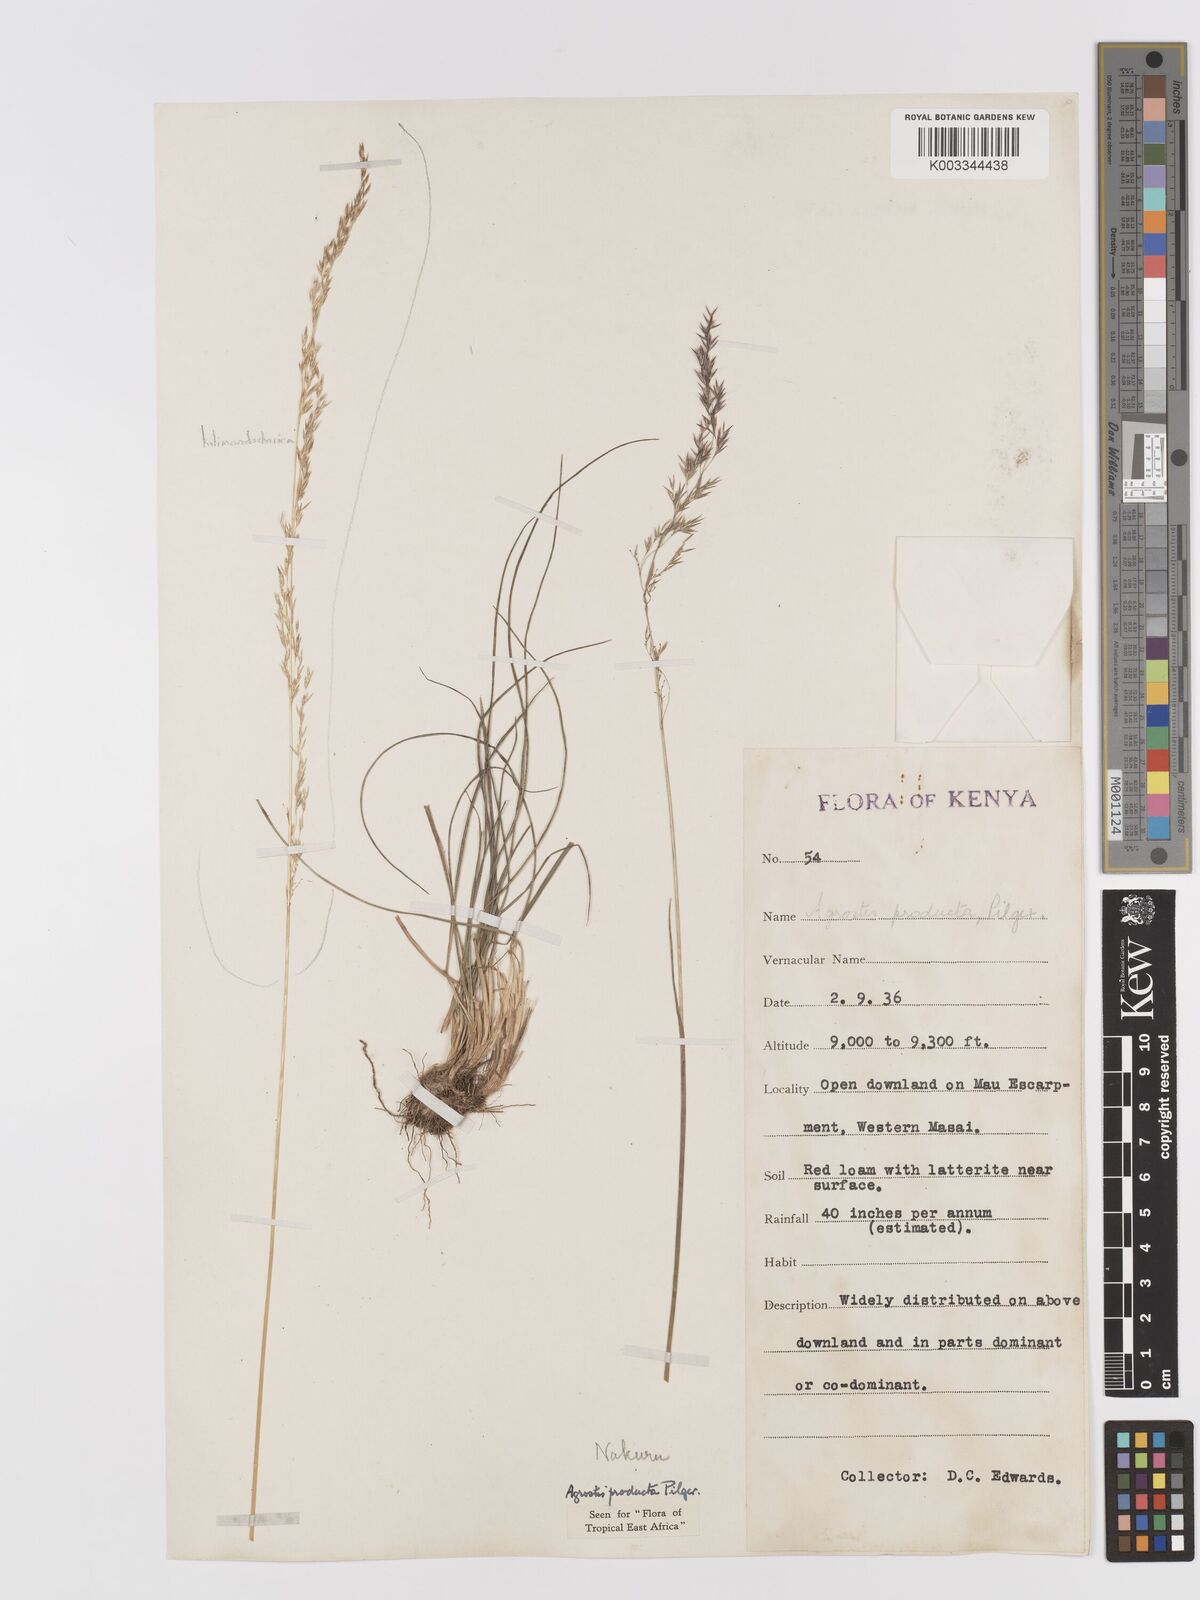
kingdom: Plantae
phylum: Tracheophyta
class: Liliopsida
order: Poales
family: Poaceae
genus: Agrostis
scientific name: Agrostis producta
